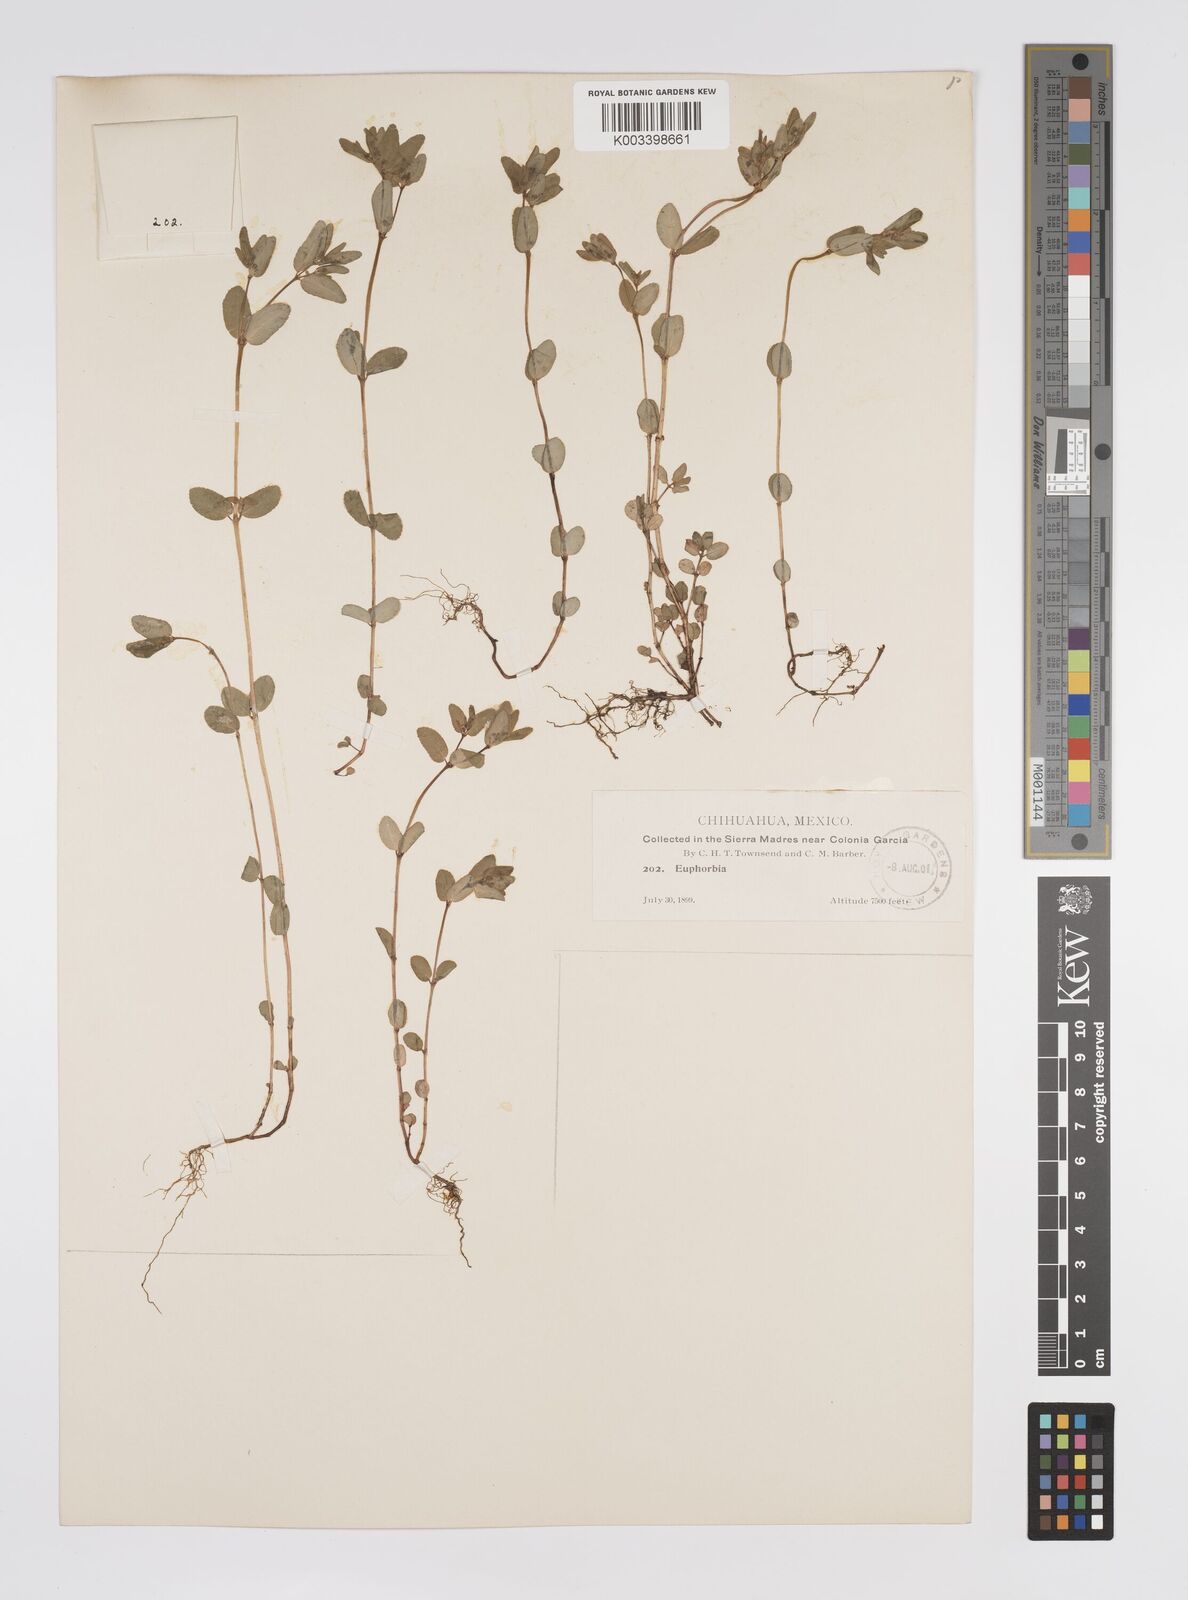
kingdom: Plantae
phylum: Tracheophyta
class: Magnoliopsida
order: Malpighiales
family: Euphorbiaceae
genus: Euphorbia
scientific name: Euphorbia
